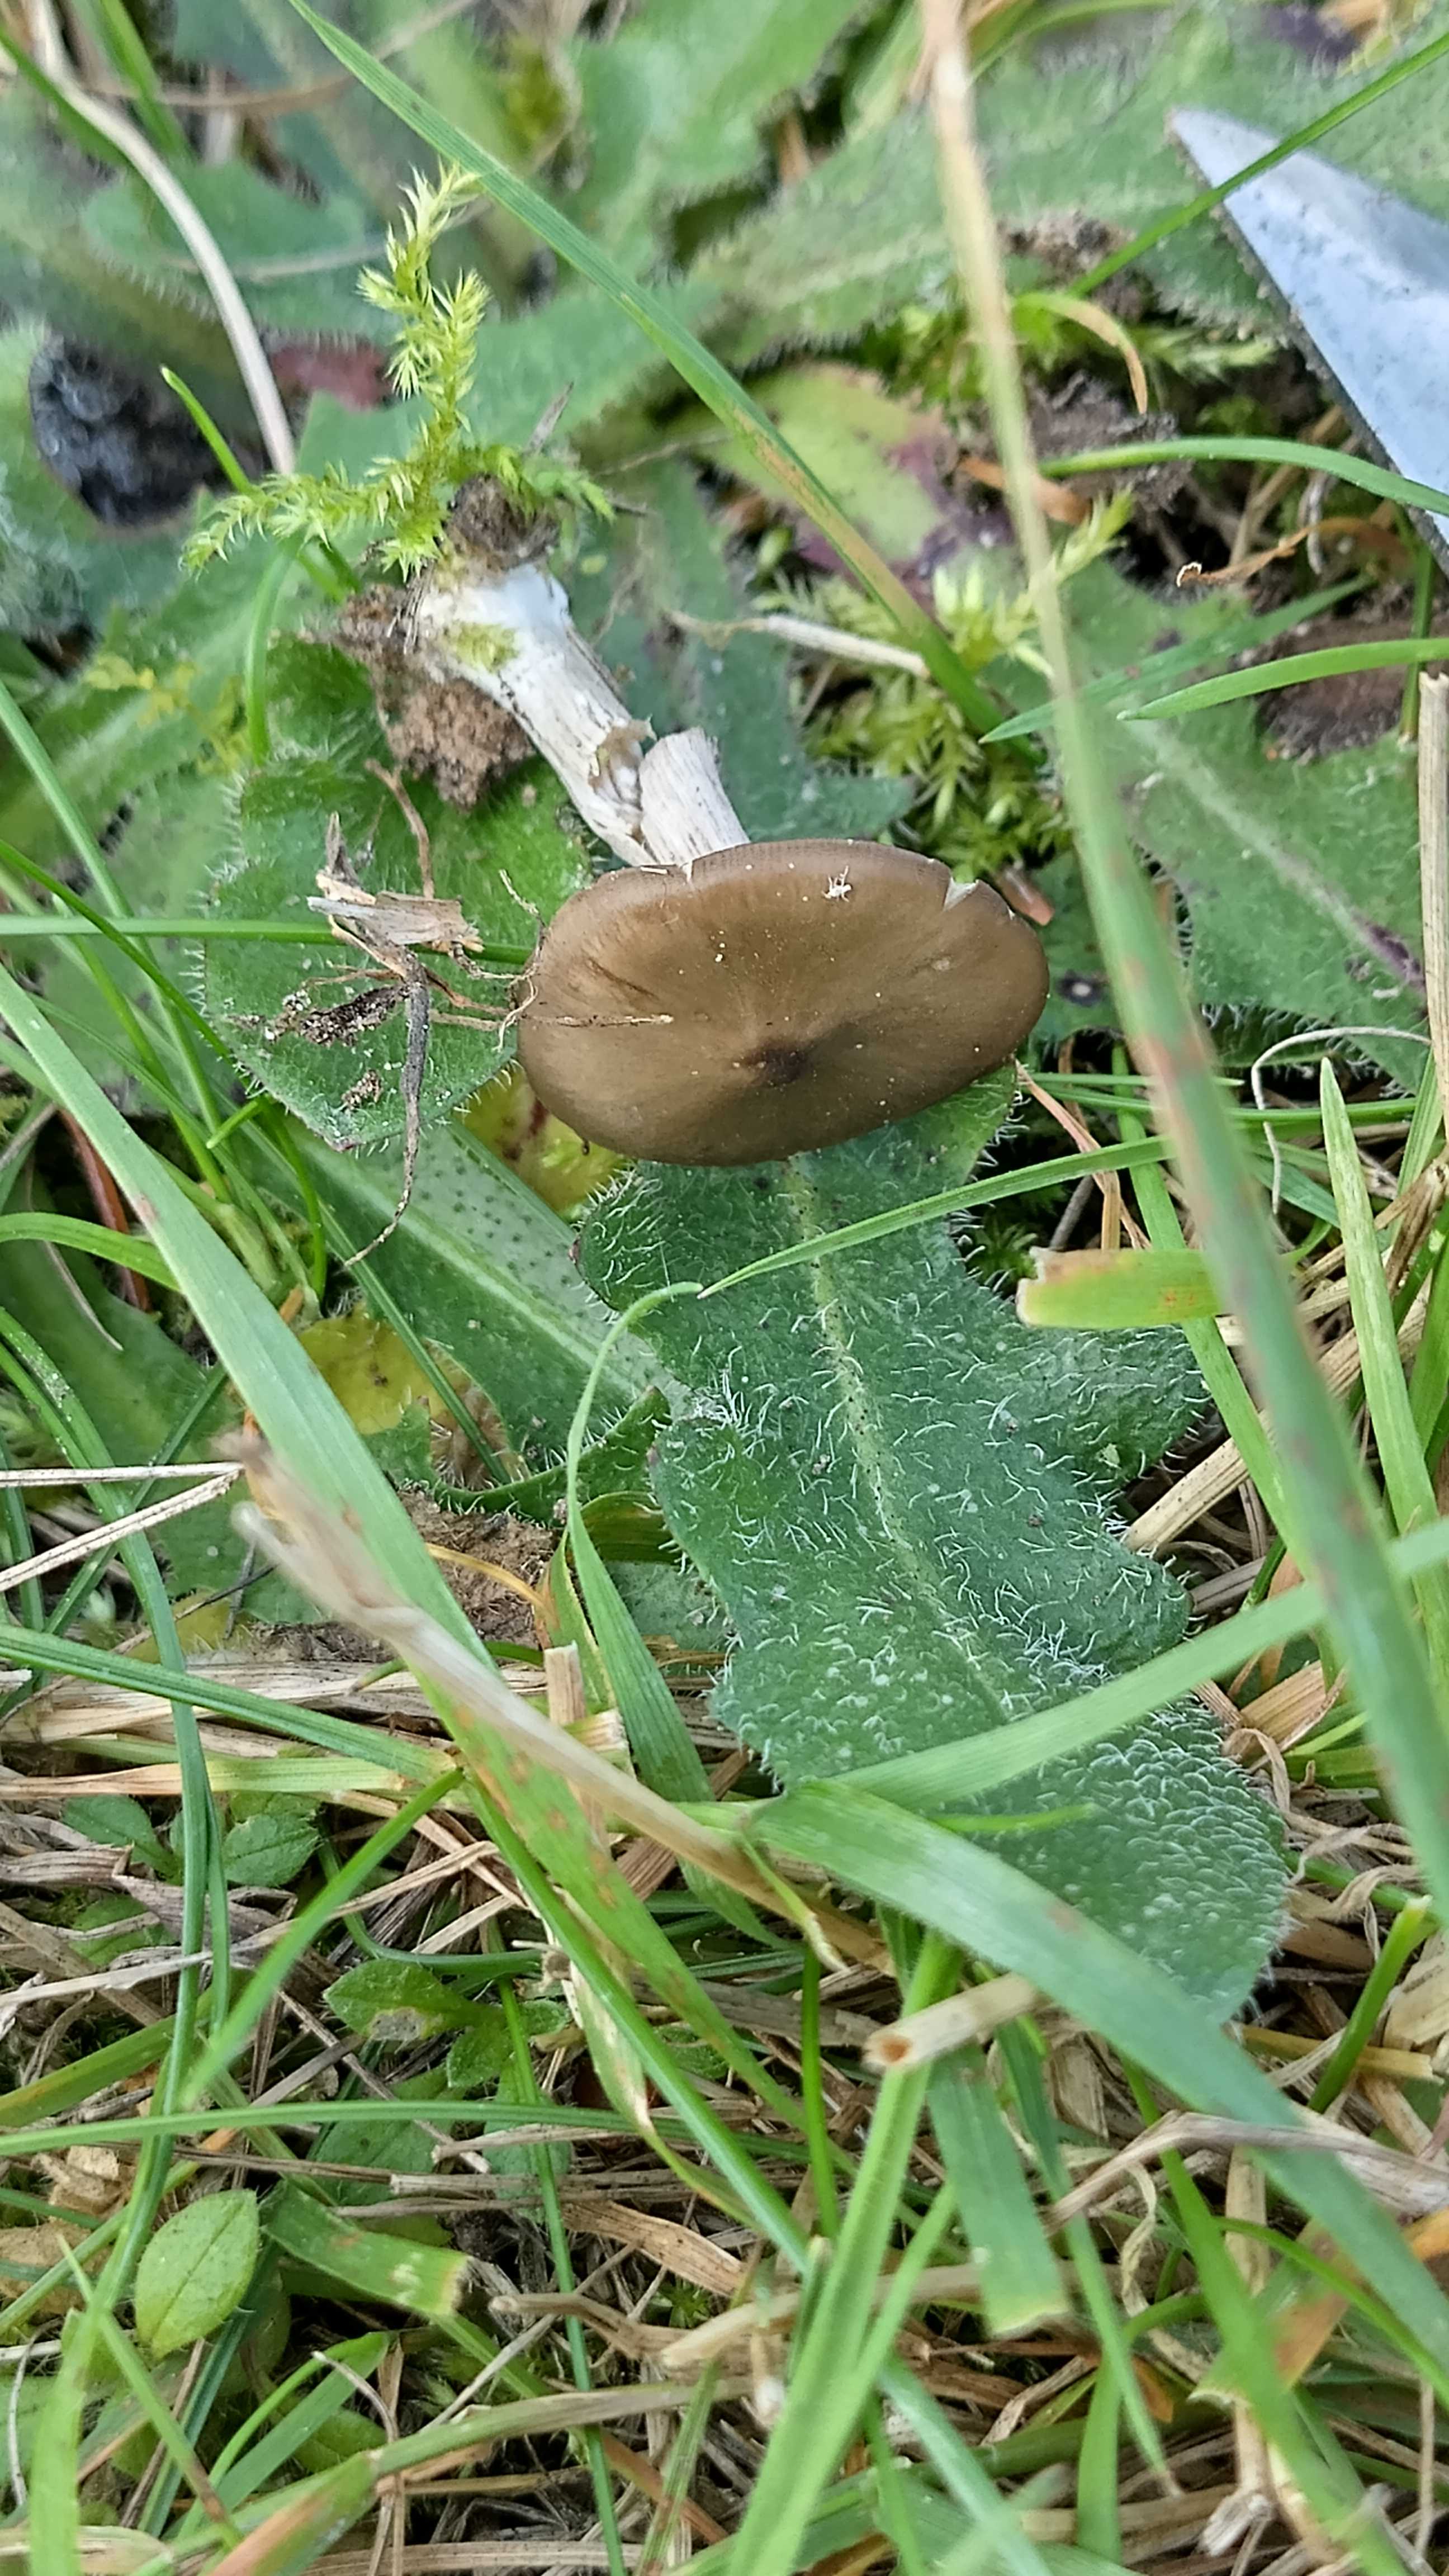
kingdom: Fungi
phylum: Basidiomycota
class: Agaricomycetes
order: Agaricales
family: Entolomataceae
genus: Entoloma
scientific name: Entoloma
